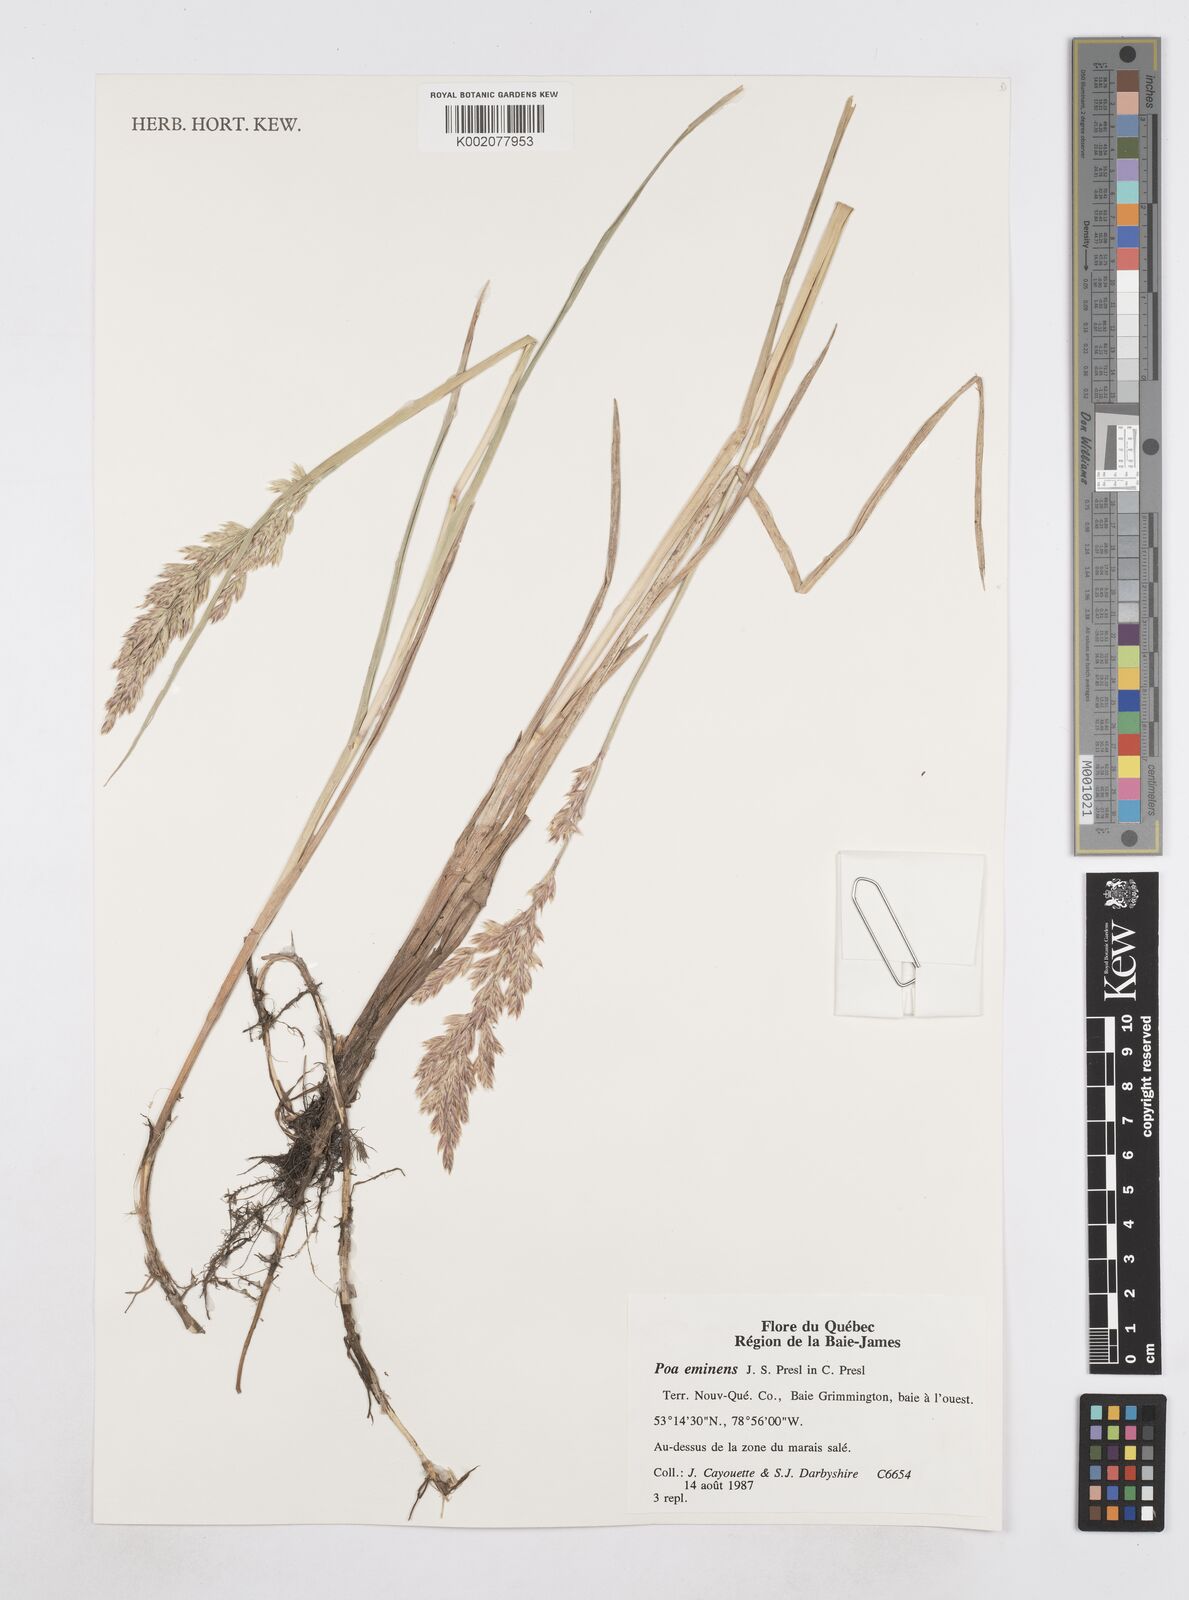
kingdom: Plantae
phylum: Tracheophyta
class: Liliopsida
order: Poales
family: Poaceae
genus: Arctopoa
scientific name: Arctopoa eminens
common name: Eminent bluegrass
